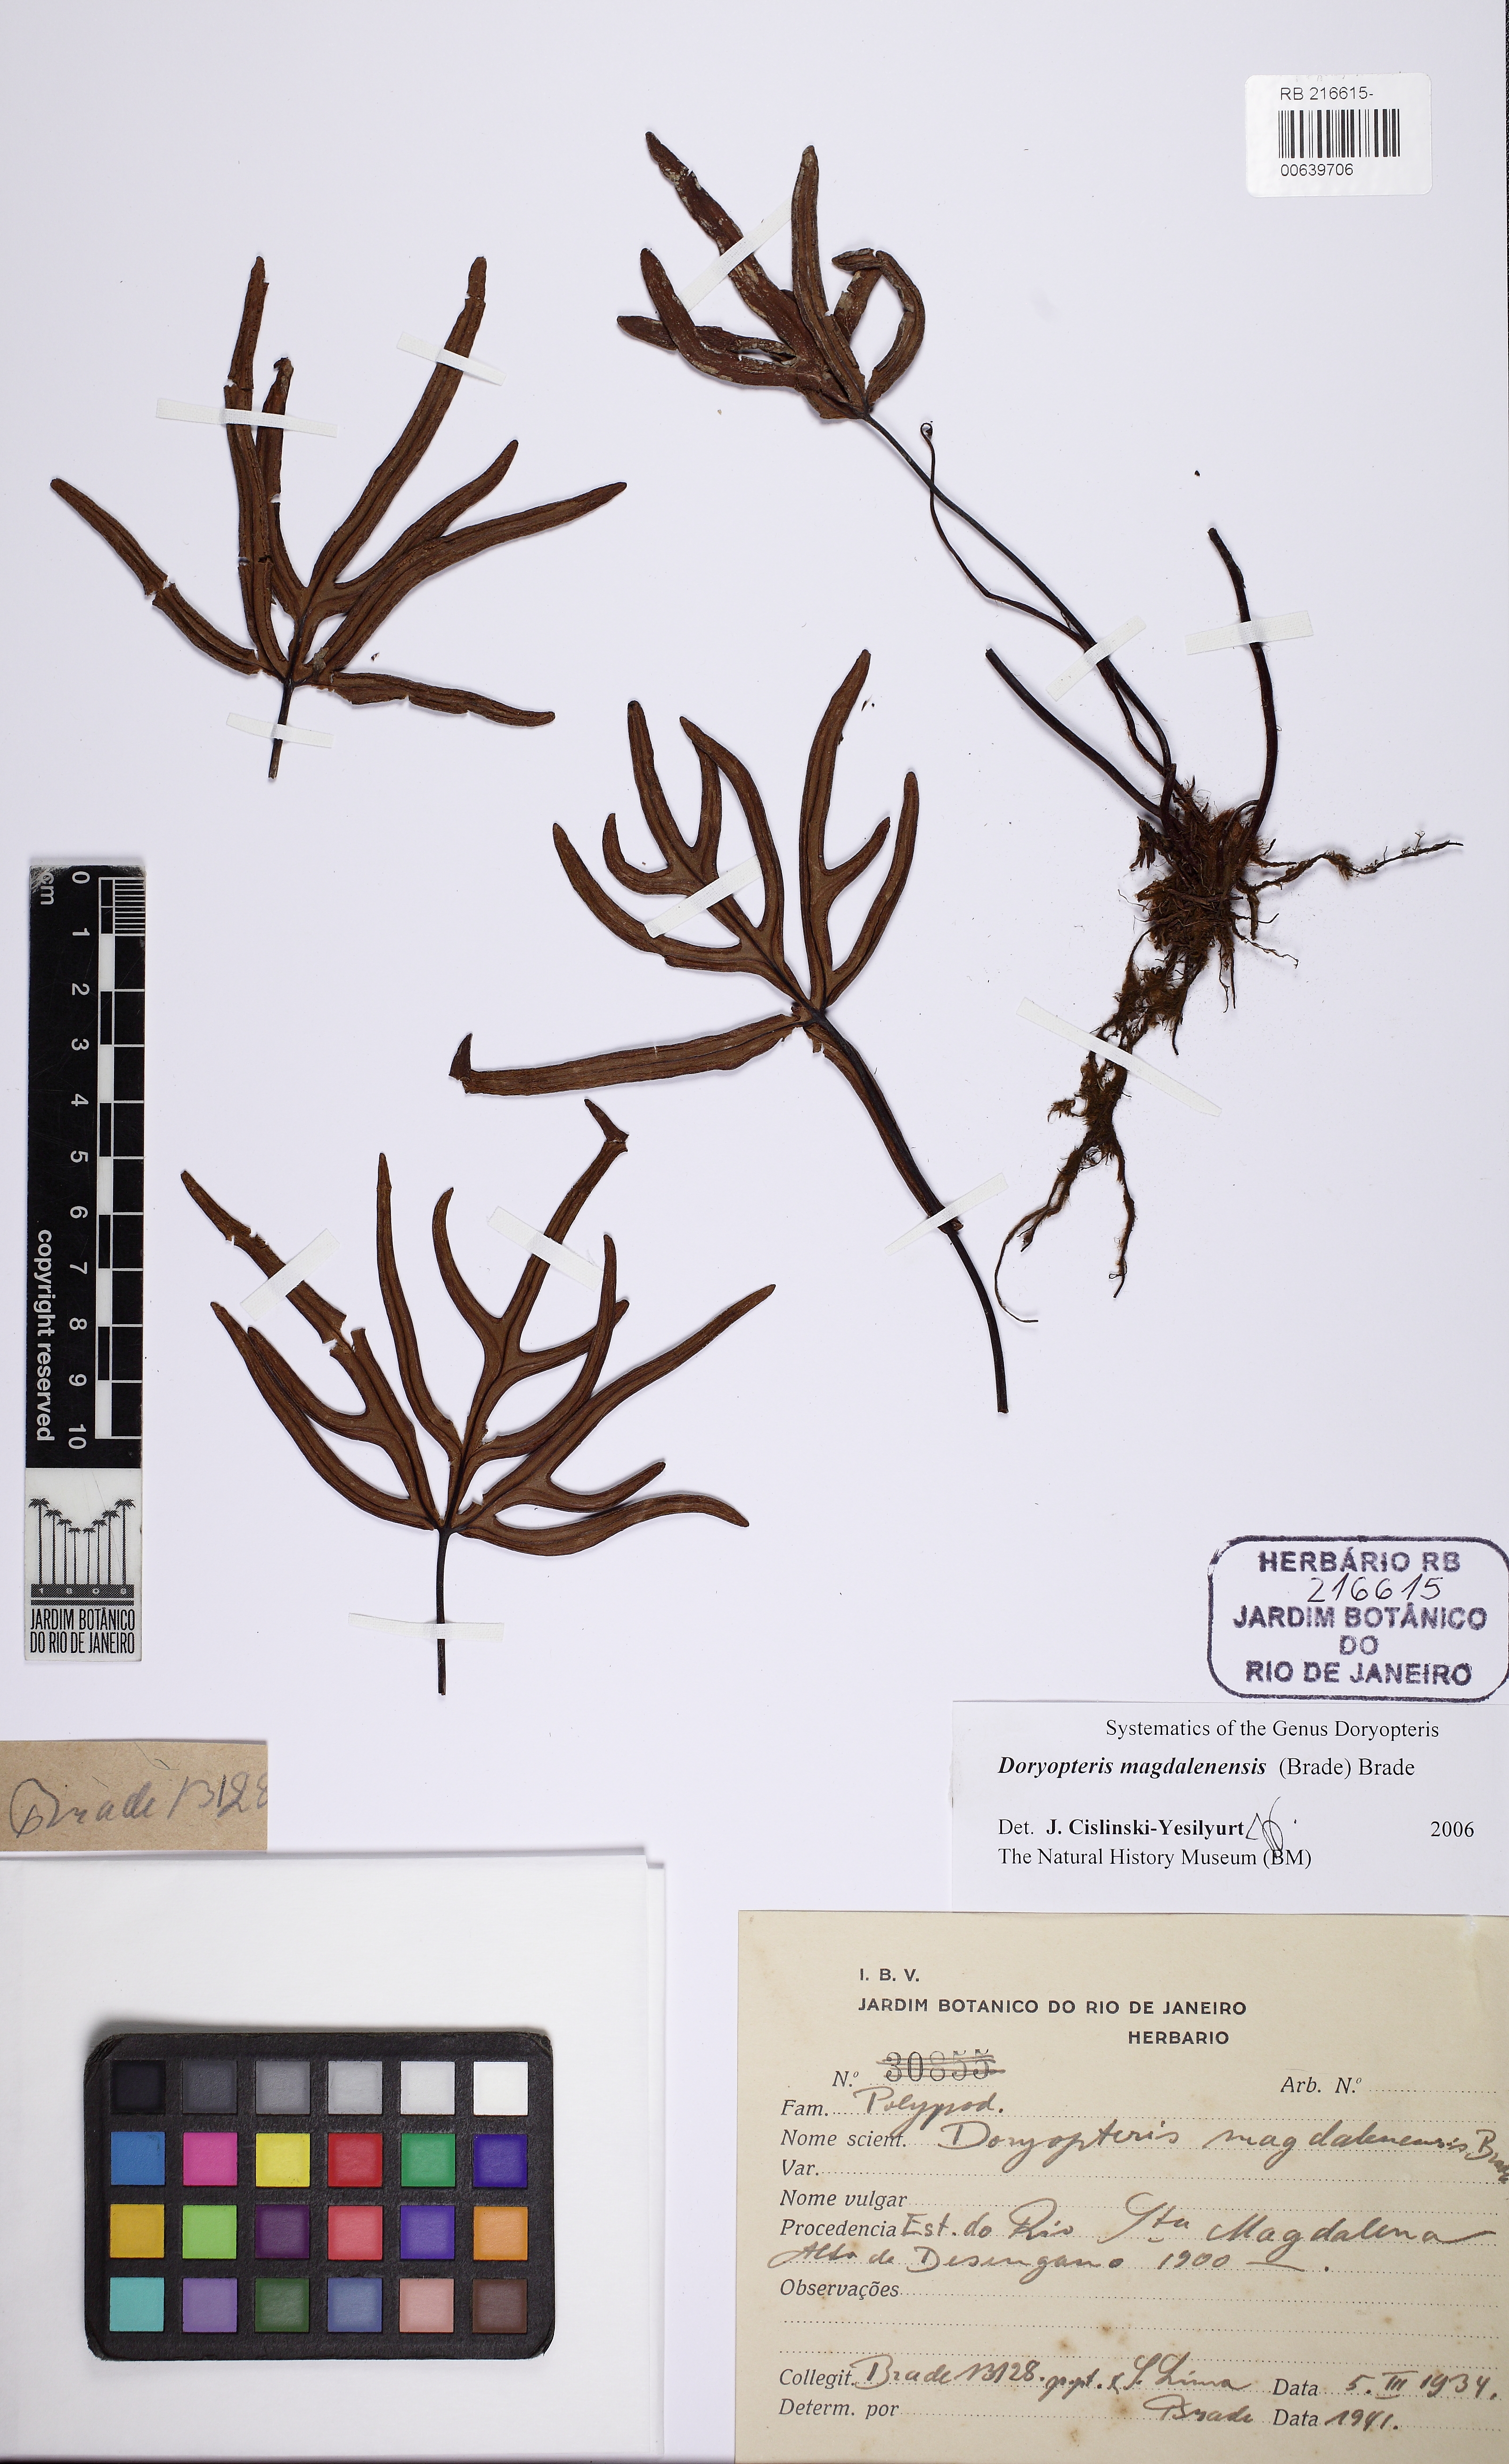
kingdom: Plantae
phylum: Tracheophyta
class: Polypodiopsida
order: Polypodiales
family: Pteridaceae
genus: Lytoneuron
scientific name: Lytoneuron magdalenense
